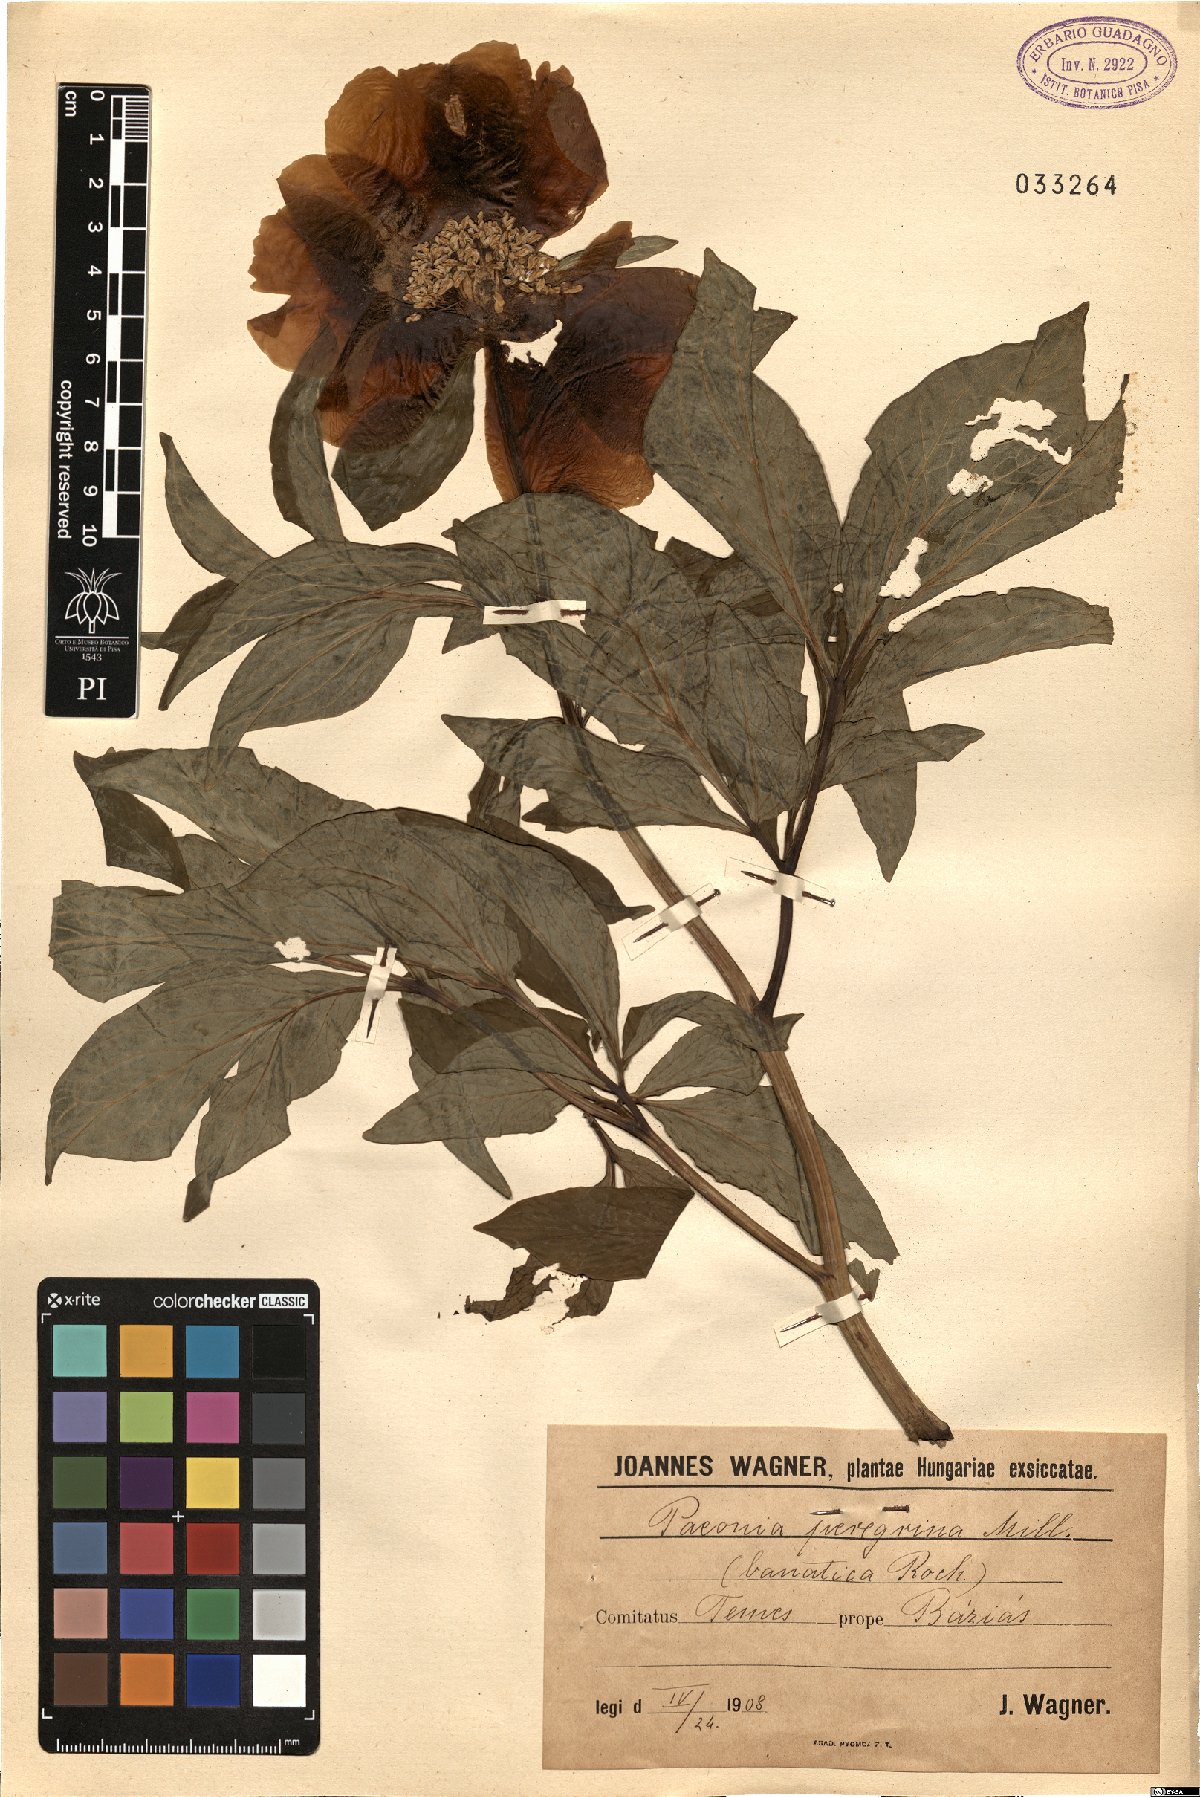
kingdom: Plantae
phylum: Tracheophyta
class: Magnoliopsida
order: Saxifragales
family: Paeoniaceae
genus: Paeonia
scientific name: Paeonia peregrina
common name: Scarlet peony
